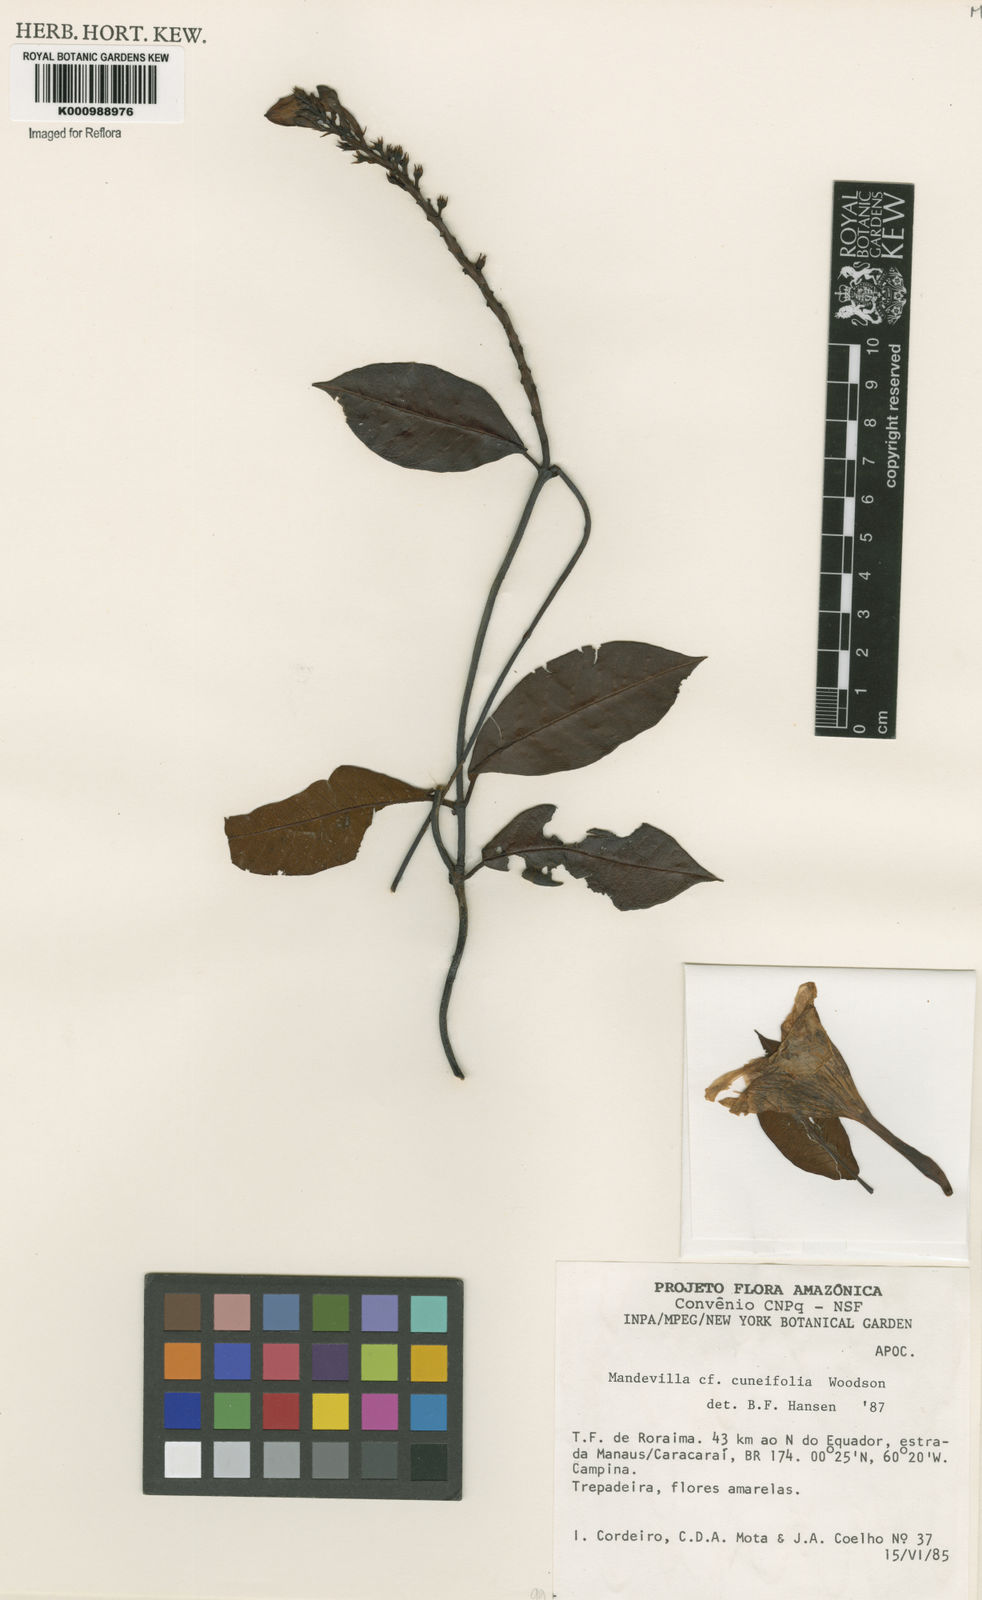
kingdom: Plantae
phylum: Tracheophyta
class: Magnoliopsida
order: Gentianales
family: Apocynaceae
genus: Mandevilla
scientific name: Mandevilla cuneifolia
